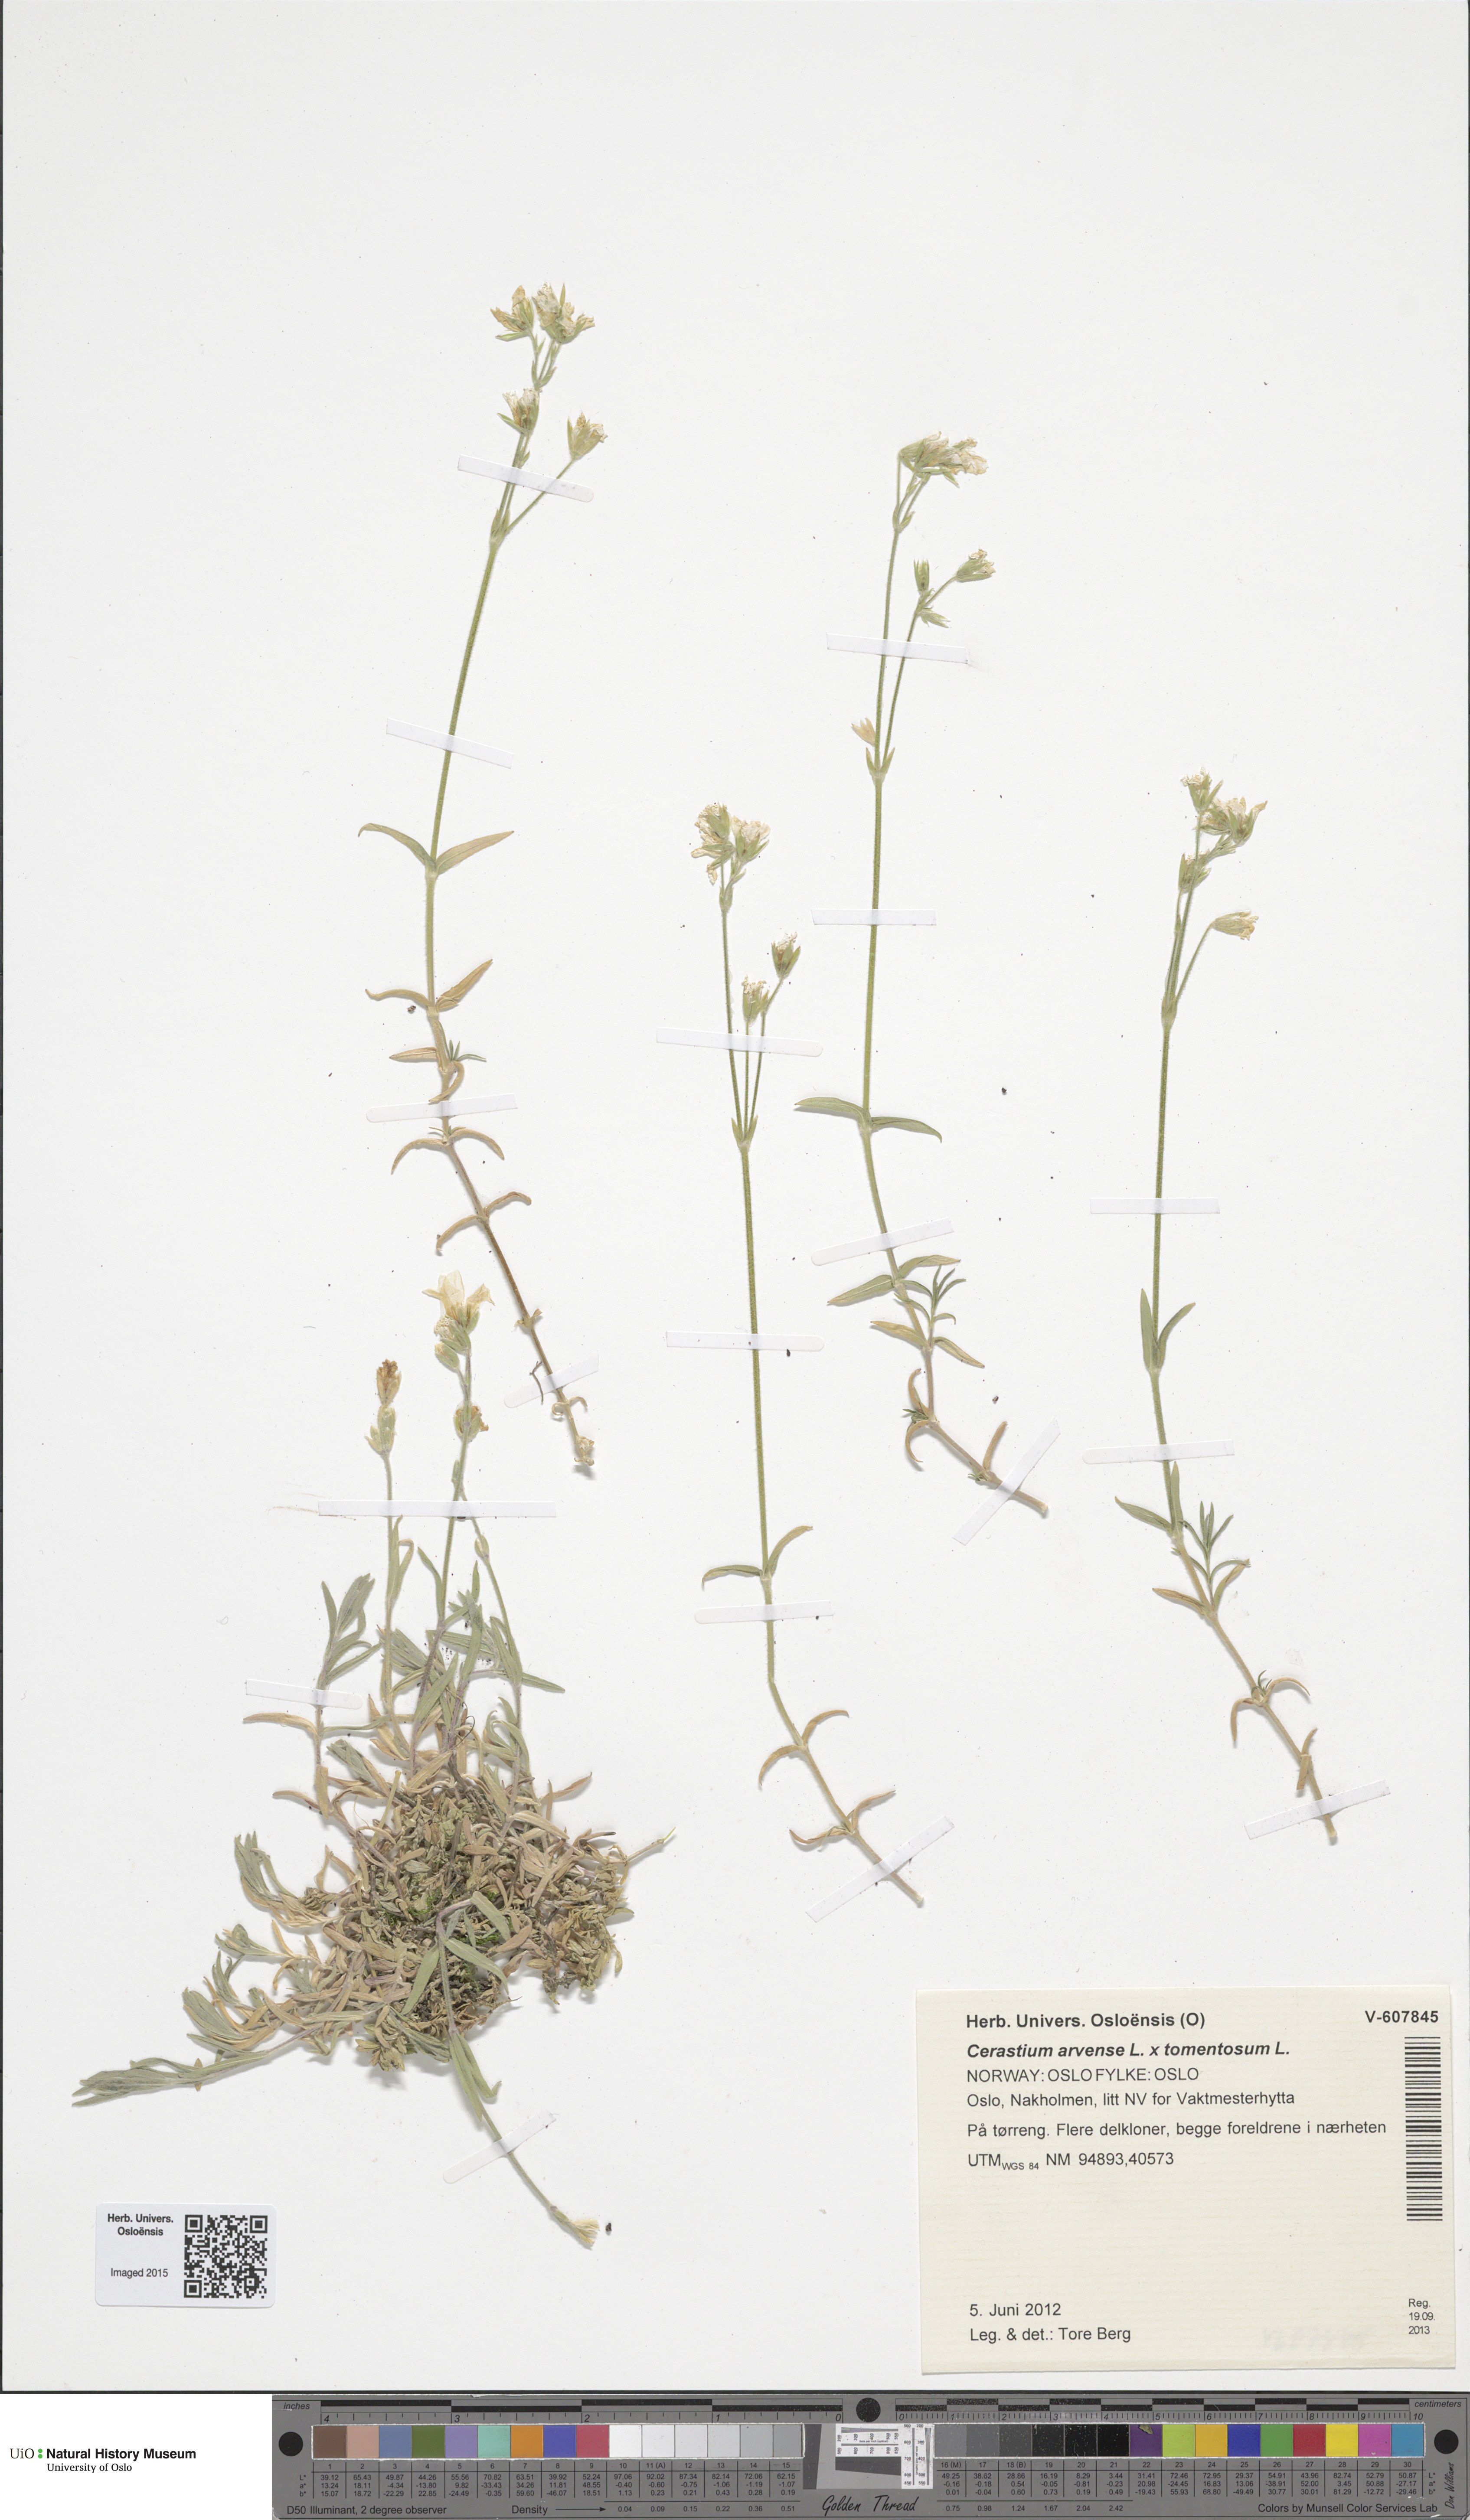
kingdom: Plantae
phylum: Tracheophyta
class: Magnoliopsida
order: Caryophyllales
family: Caryophyllaceae
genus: Cerastium
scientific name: Cerastium
